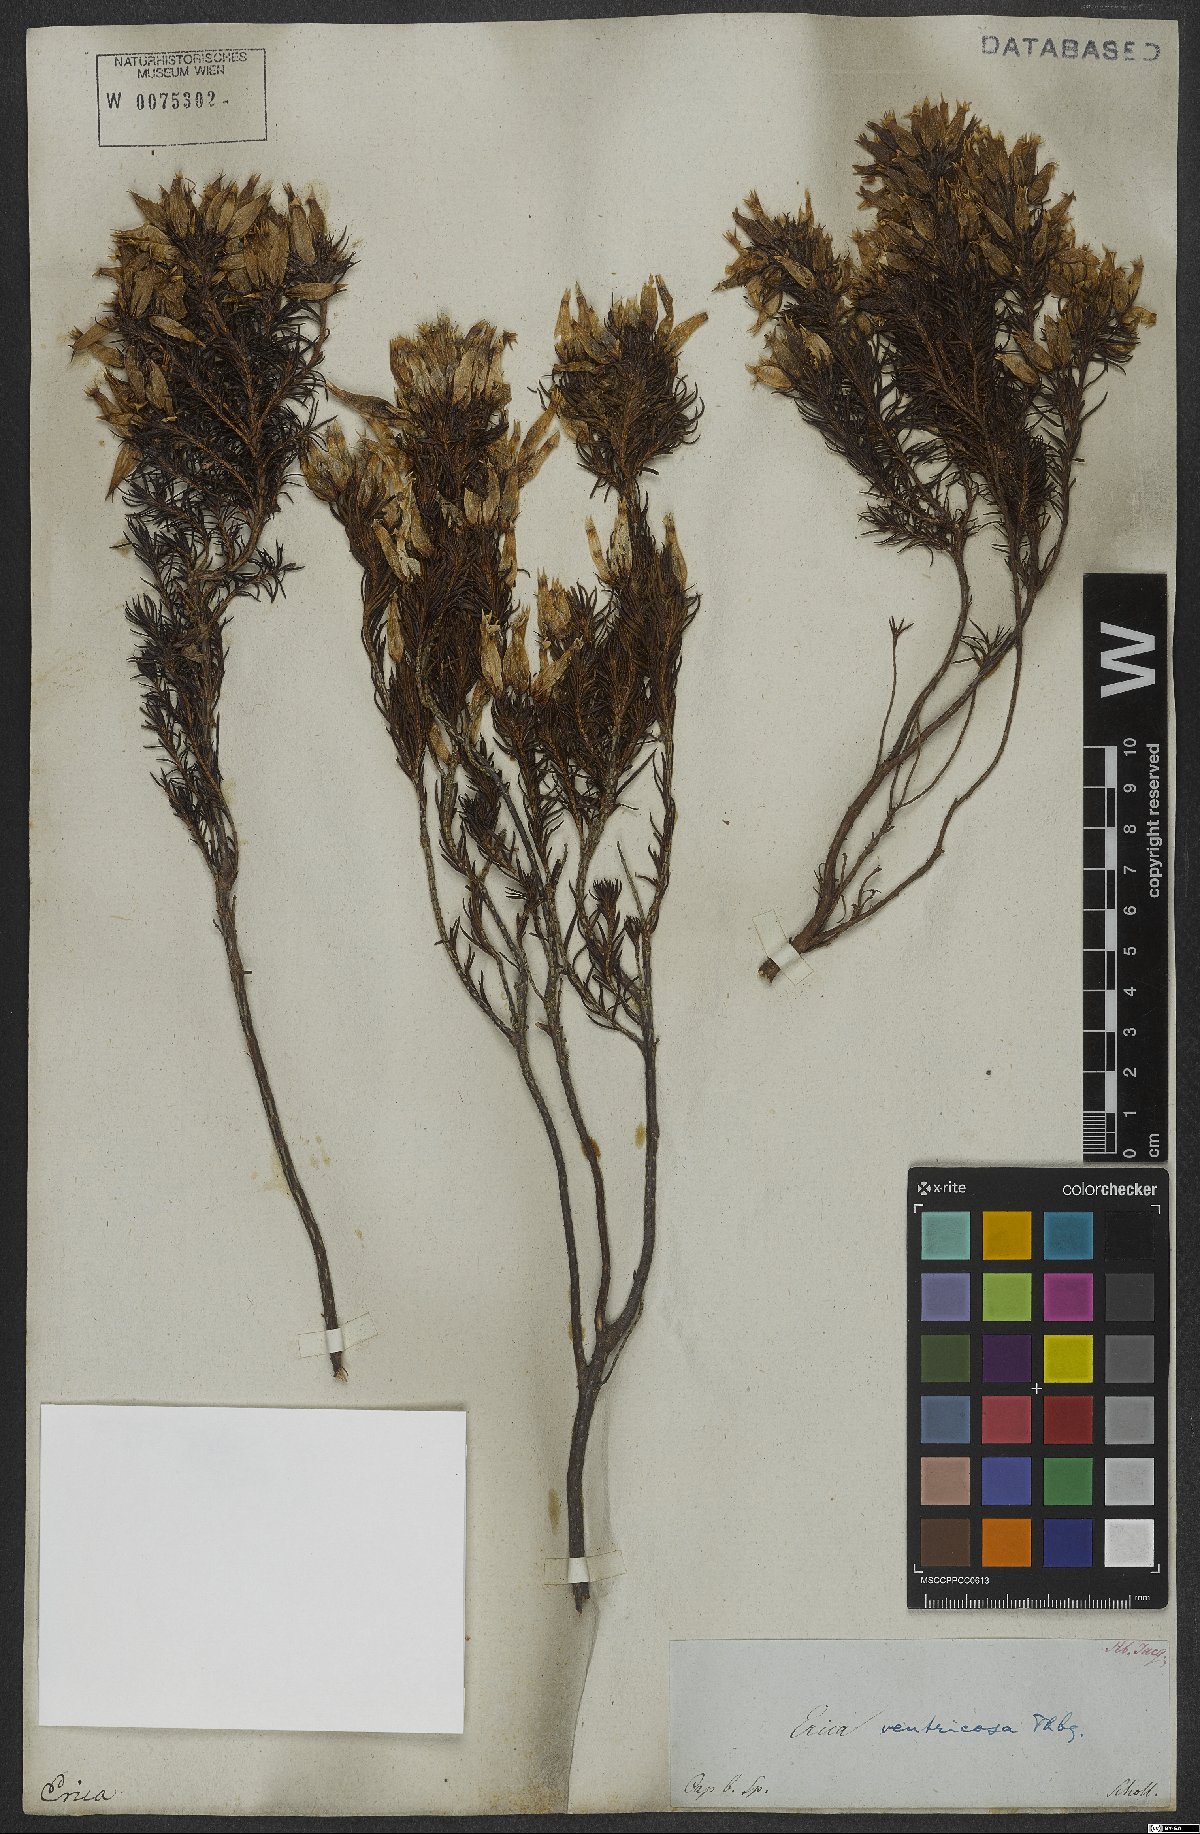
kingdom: Plantae
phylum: Tracheophyta
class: Magnoliopsida
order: Ericales
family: Ericaceae
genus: Erica
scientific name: Erica ventricosa
